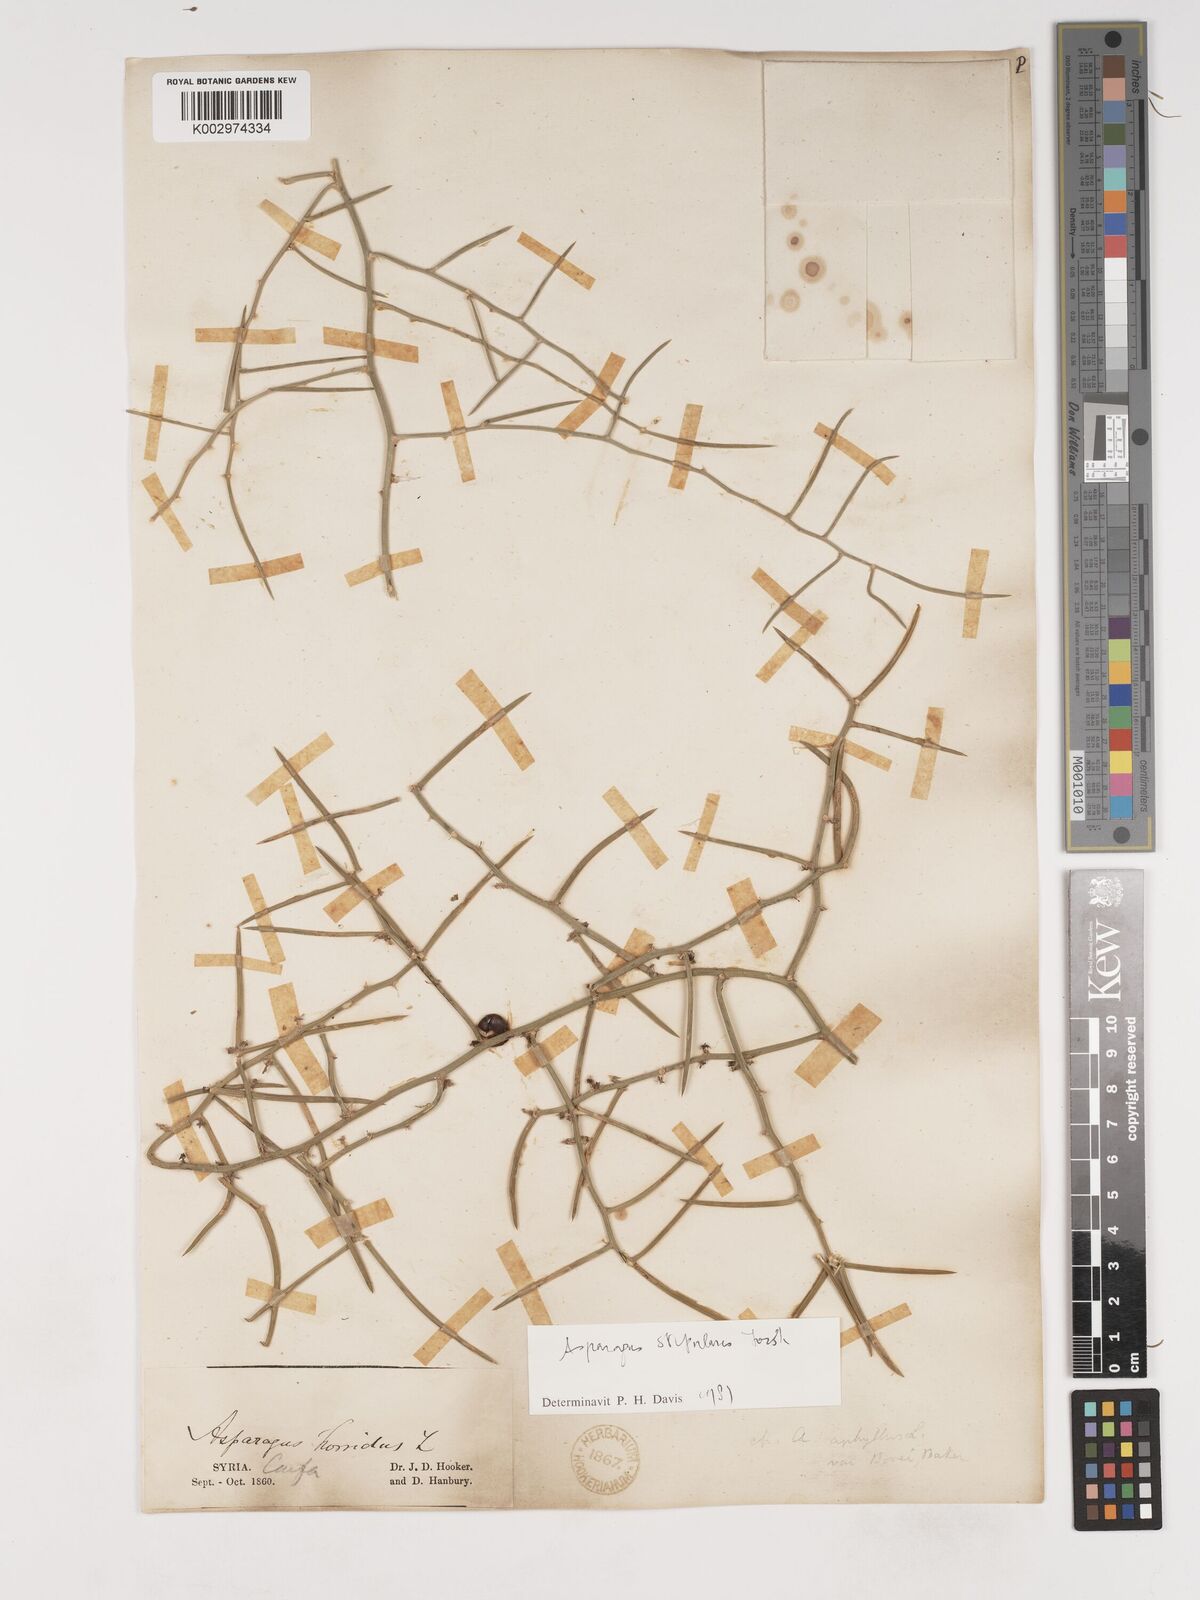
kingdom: Plantae
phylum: Tracheophyta
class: Liliopsida
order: Asparagales
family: Asparagaceae
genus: Asparagus
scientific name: Asparagus horridus
